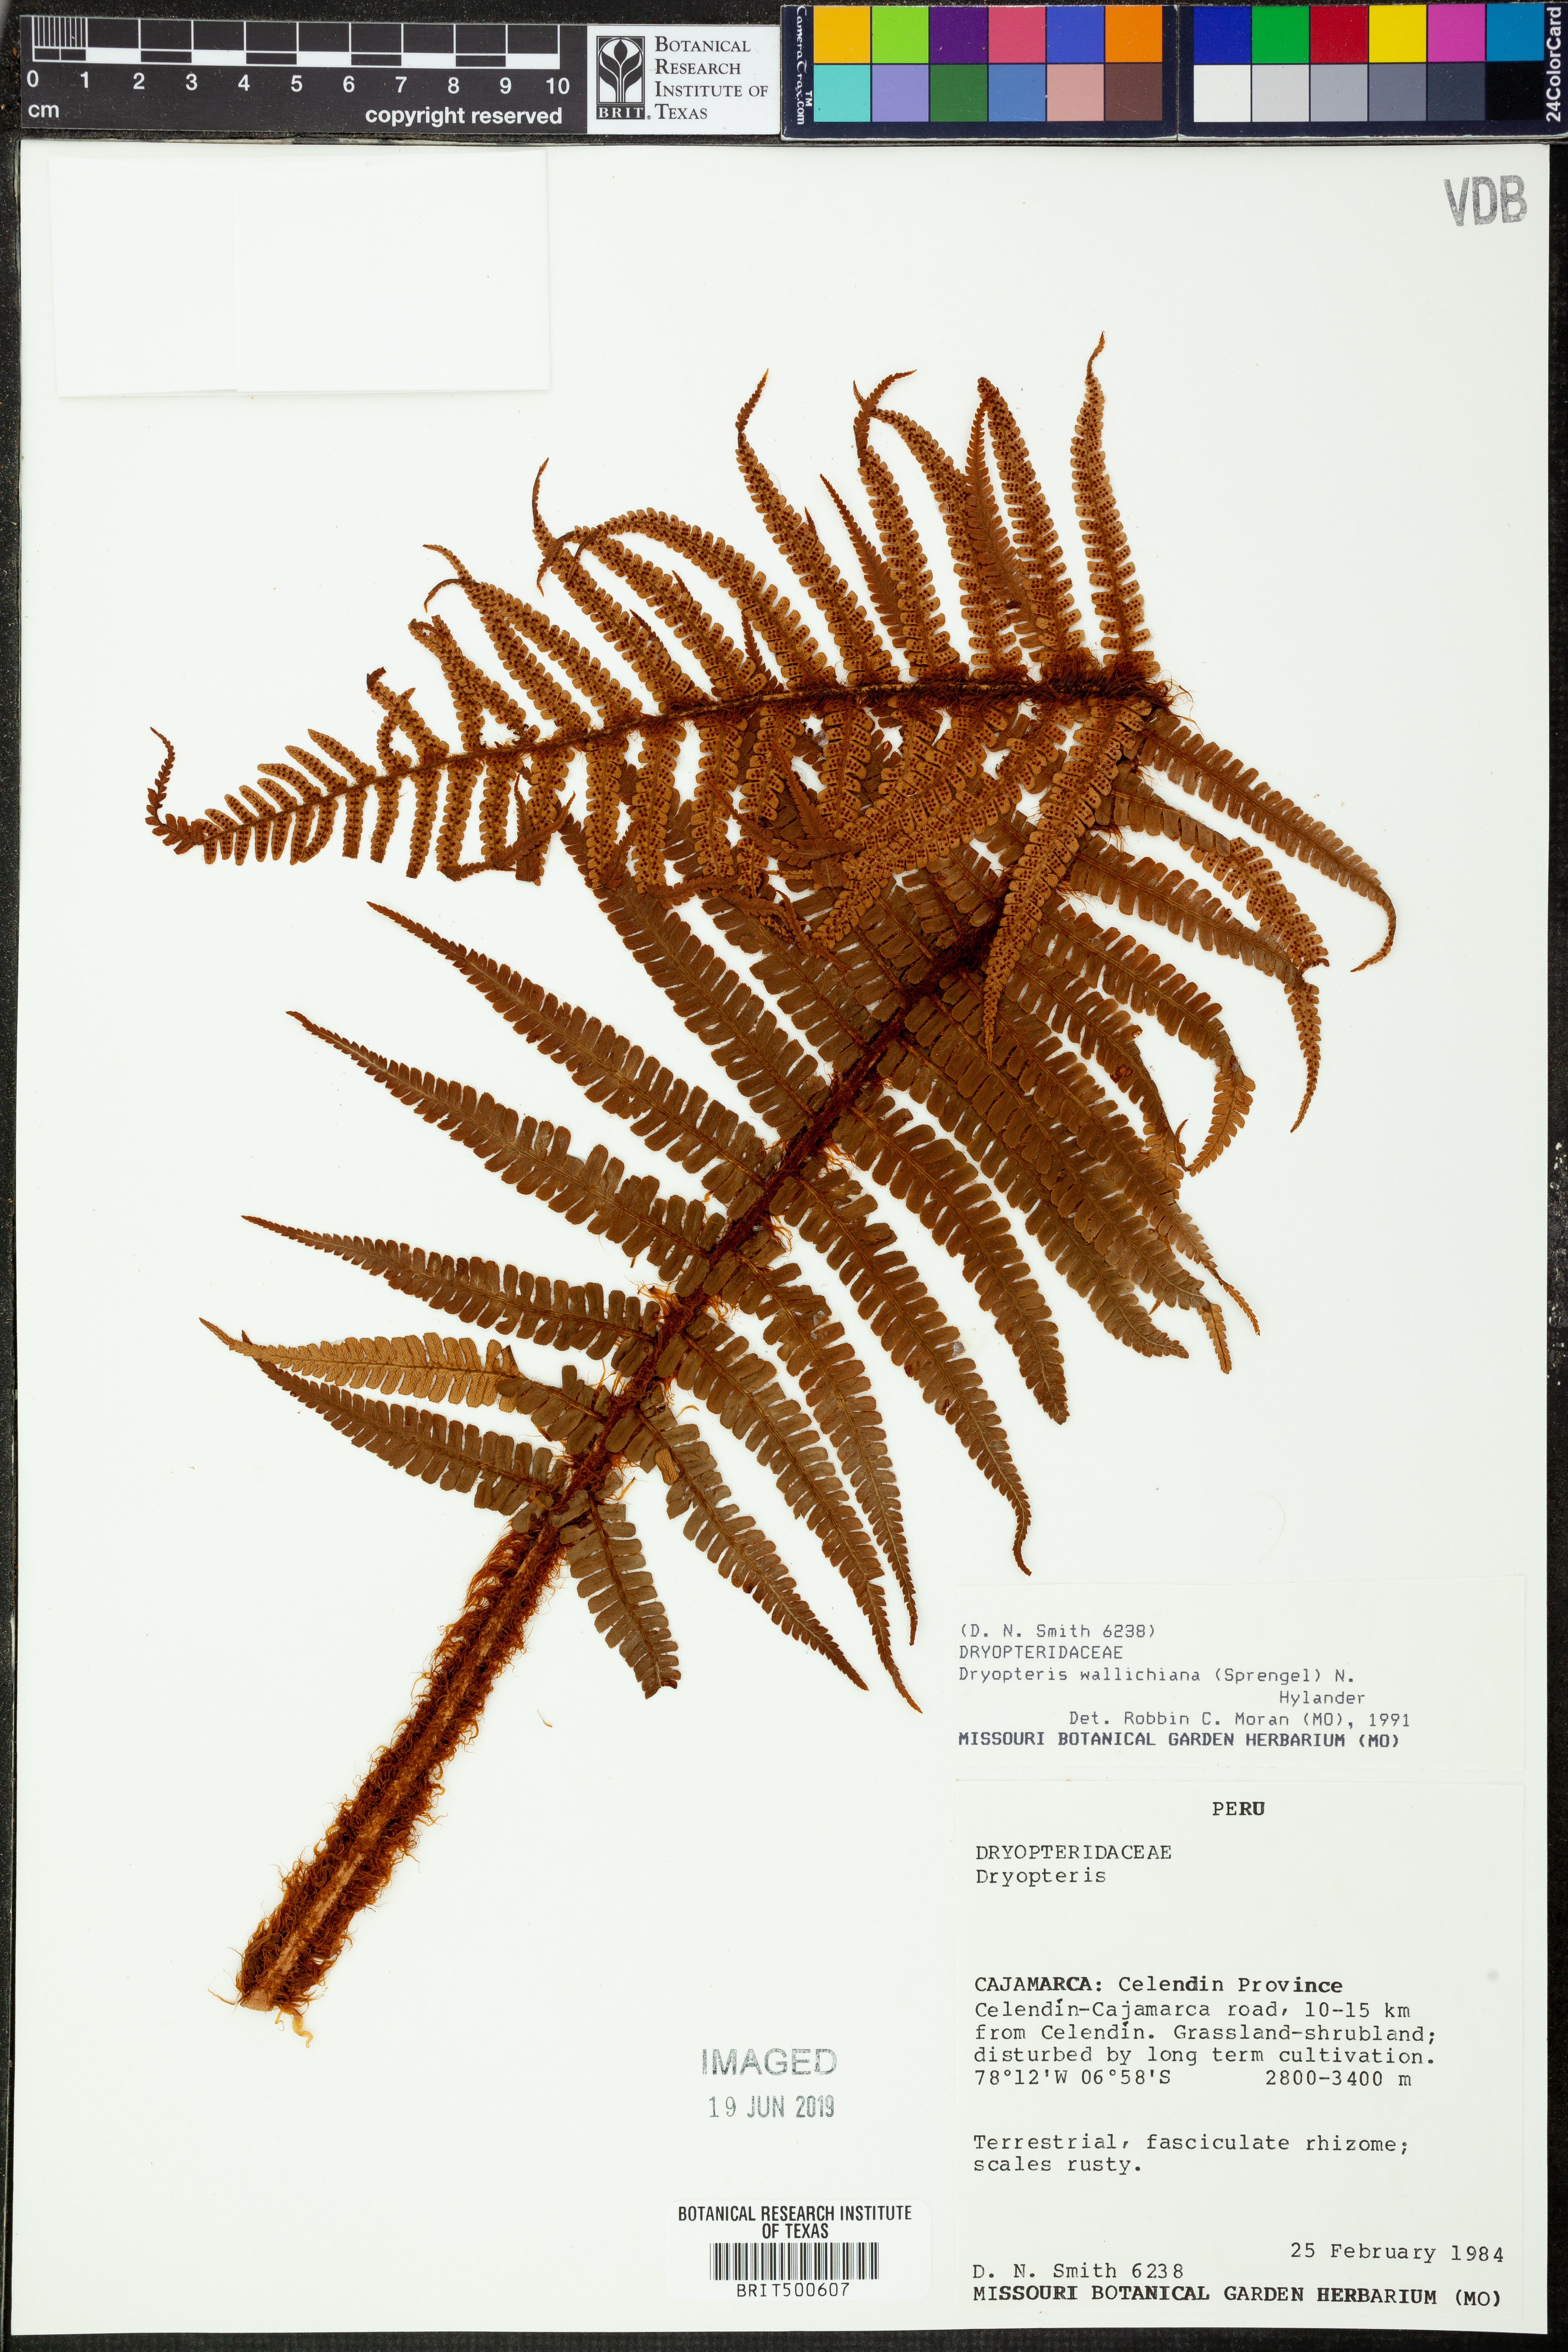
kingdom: Plantae
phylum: Tracheophyta
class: Polypodiopsida
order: Polypodiales
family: Dryopteridaceae
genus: Dryopteris
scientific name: Dryopteris wallichiana
